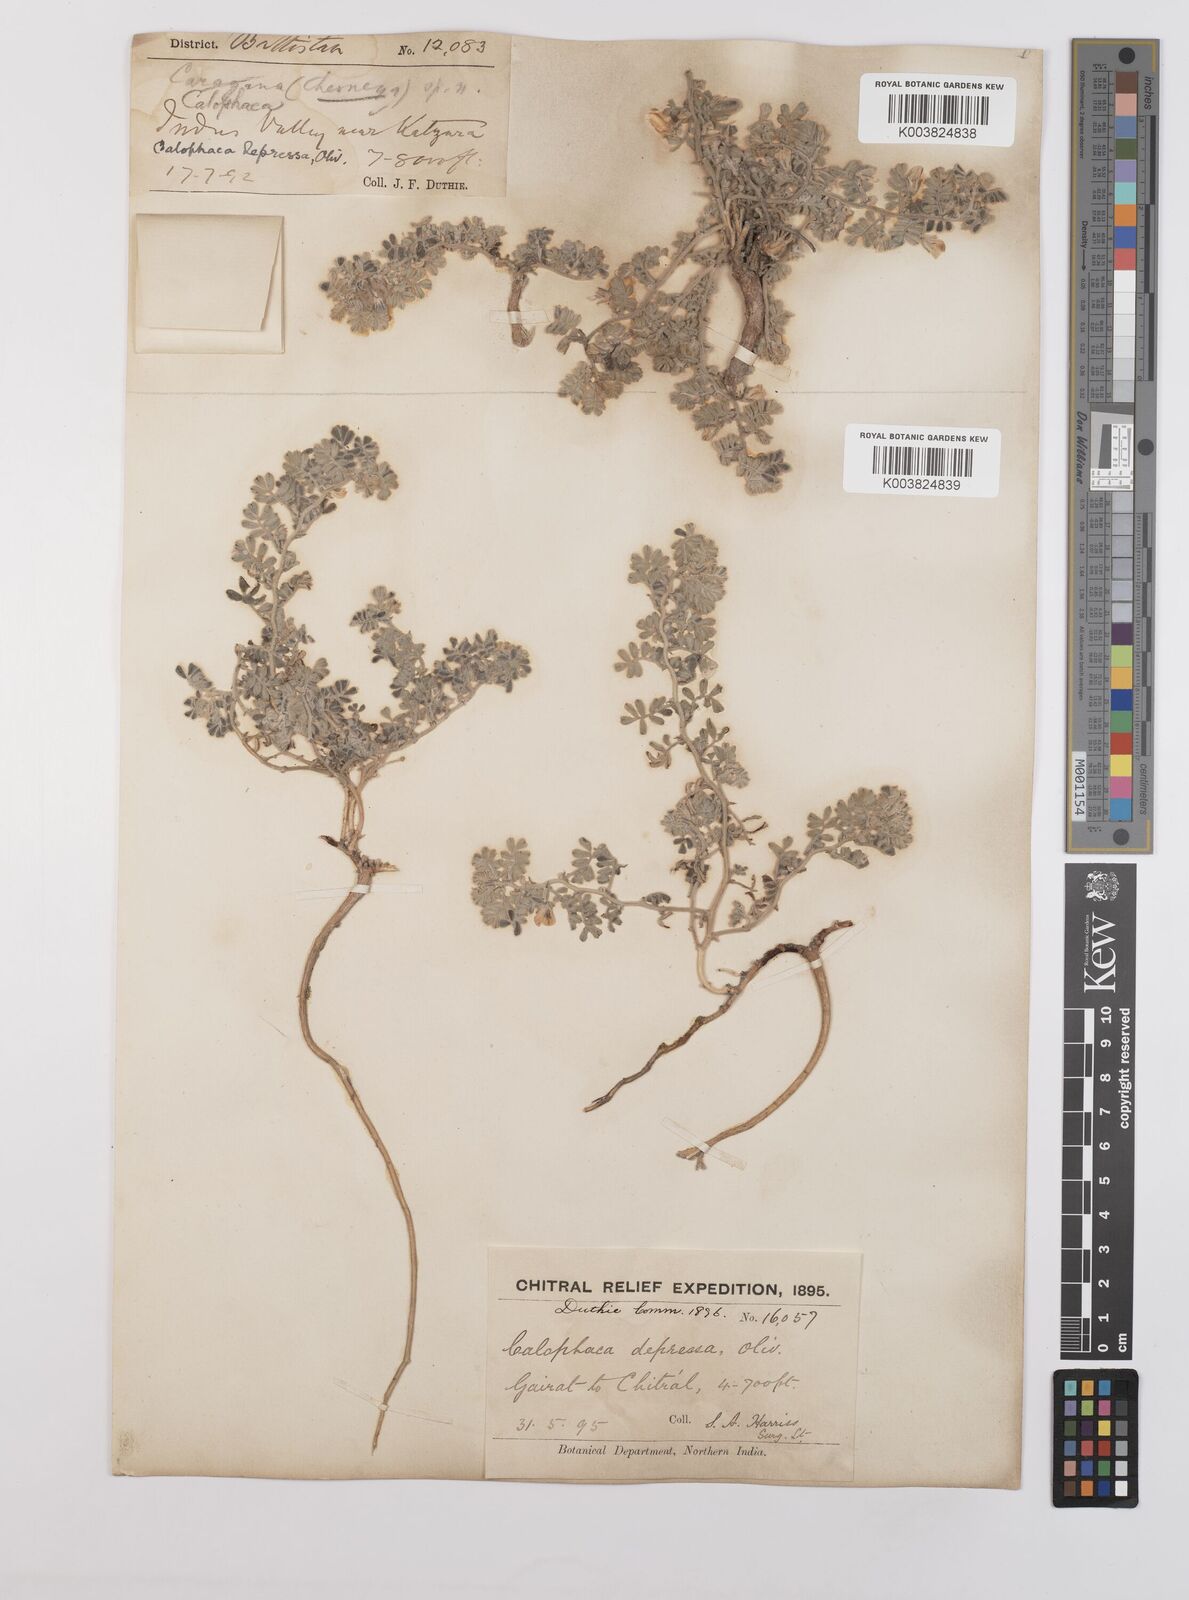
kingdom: Plantae
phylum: Tracheophyta
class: Magnoliopsida
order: Fabales
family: Fabaceae
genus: Chesneya
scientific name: Chesneya depressa
